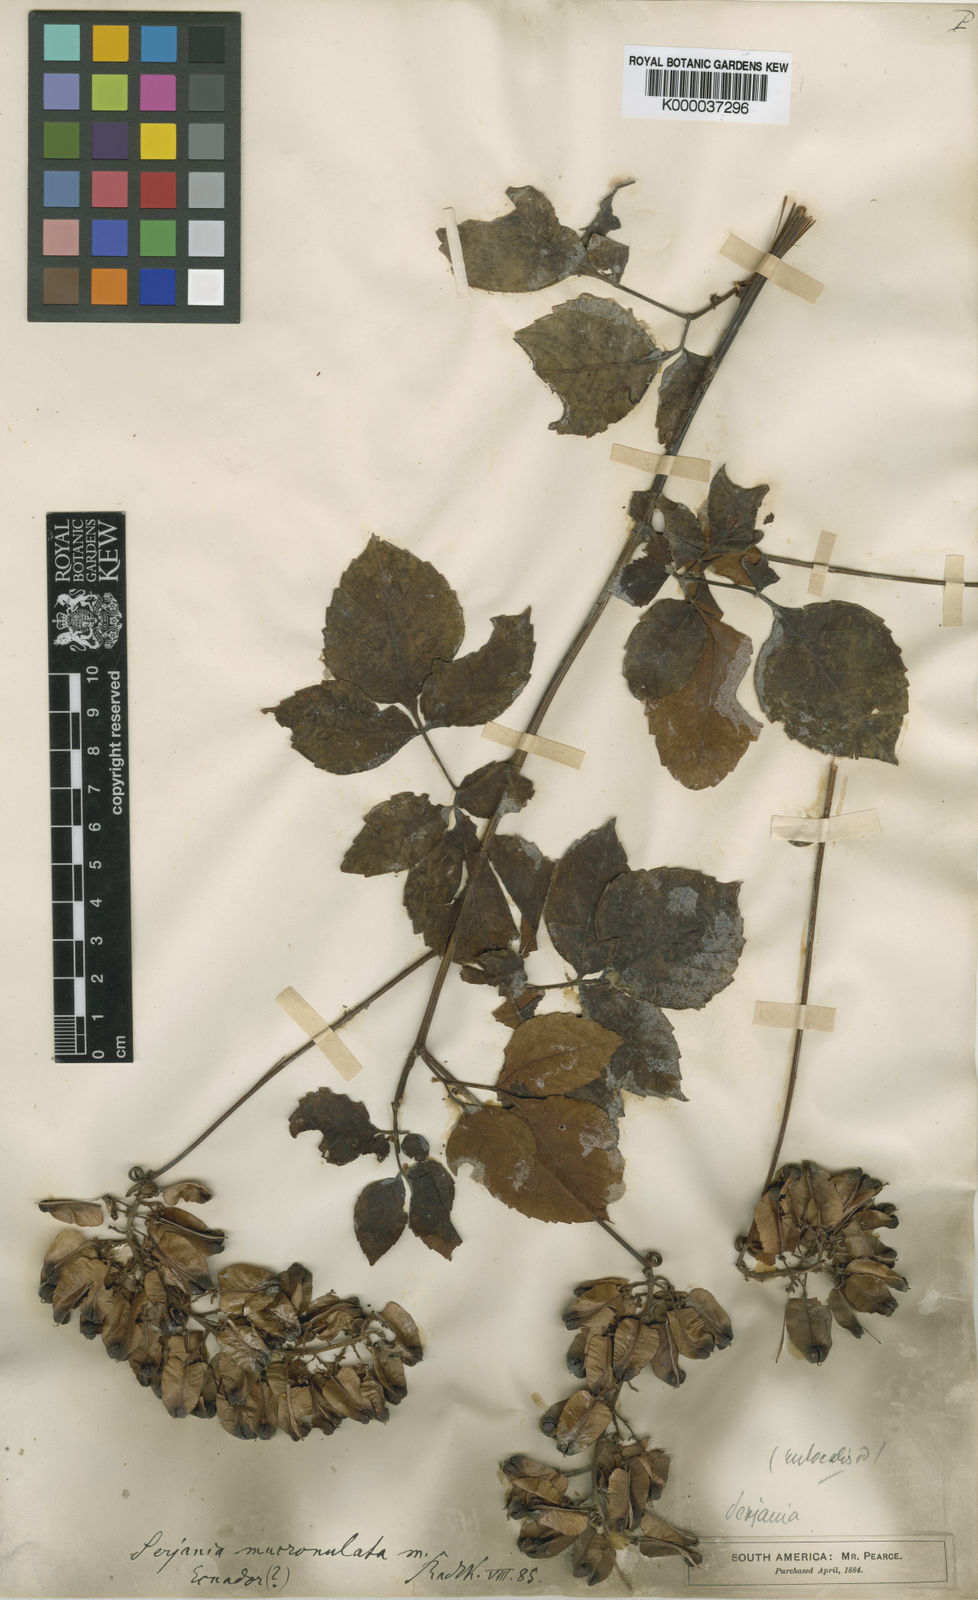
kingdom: Plantae
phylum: Tracheophyta
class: Magnoliopsida
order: Sapindales
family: Sapindaceae
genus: Serjania
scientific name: Serjania mucronulata
